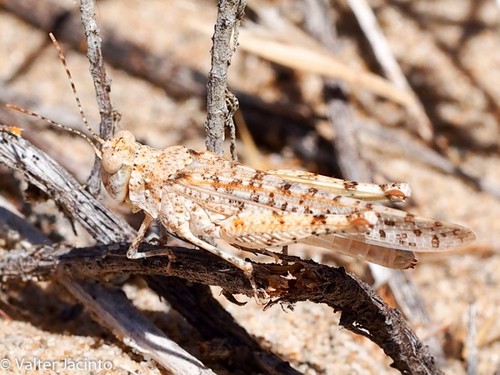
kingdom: Animalia
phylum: Arthropoda
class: Insecta
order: Orthoptera
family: Acrididae
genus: Sphingonotus
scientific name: Sphingonotus imitans
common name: Algarve sand grasshopper
